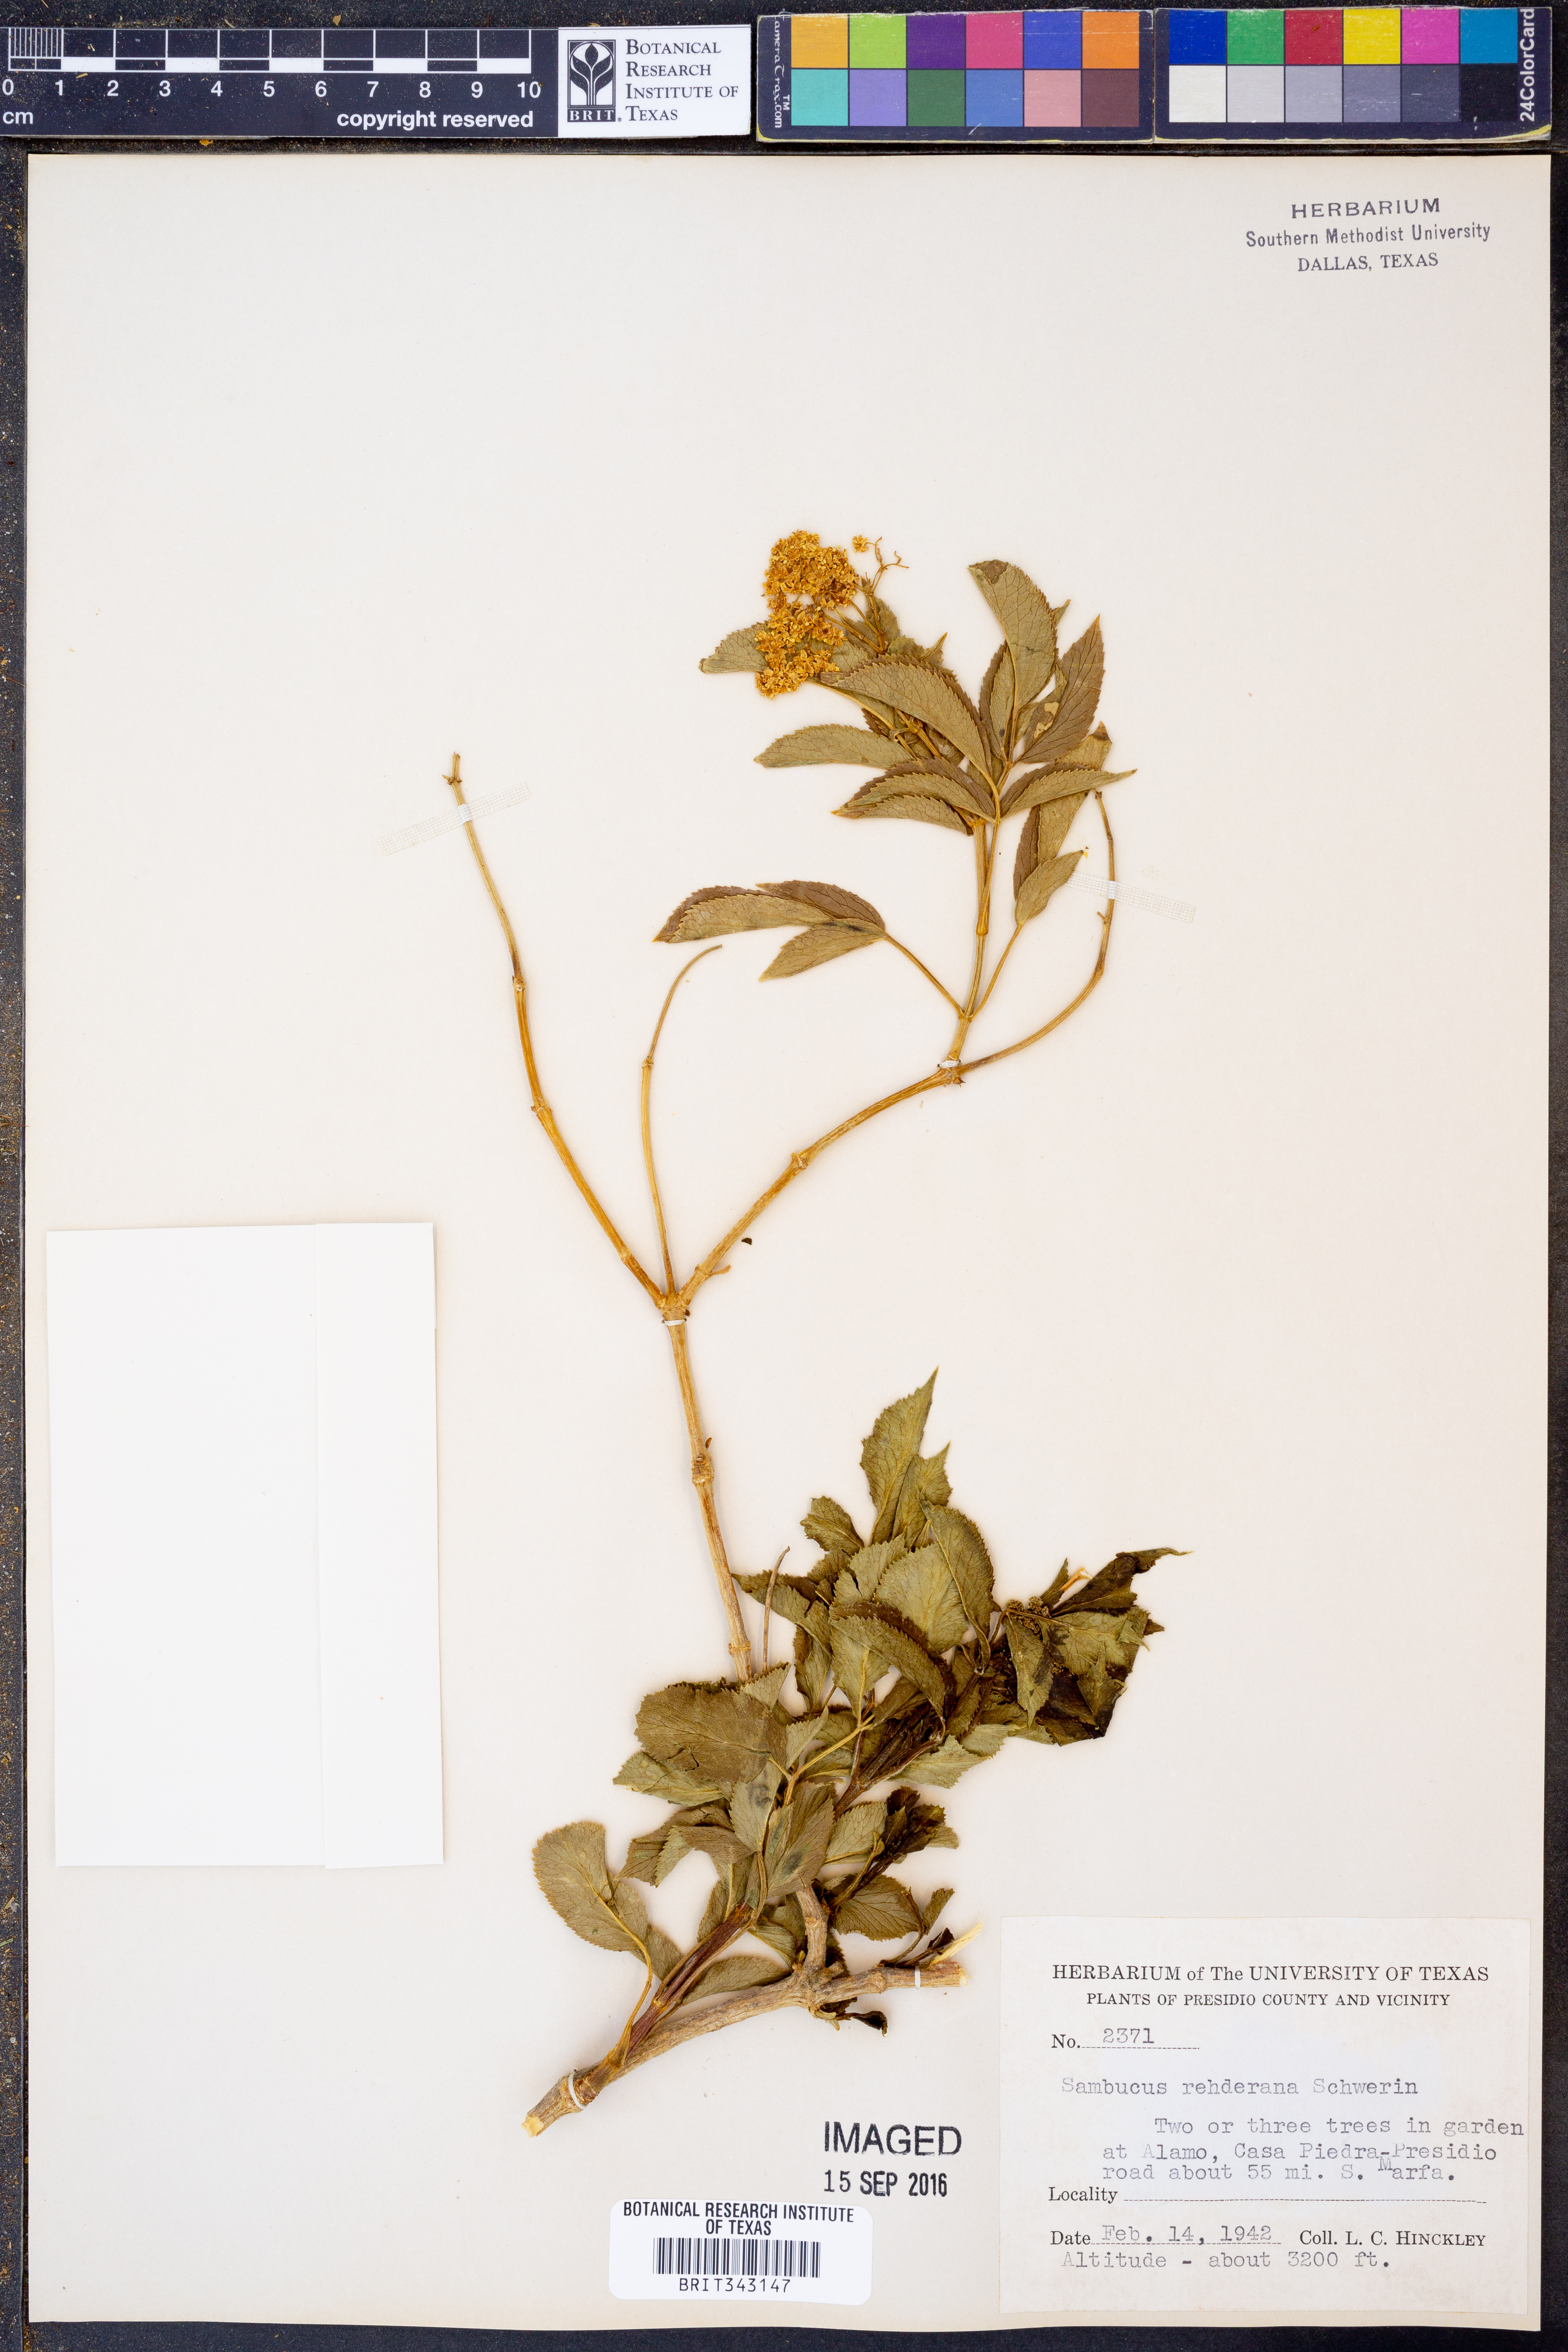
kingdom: Plantae
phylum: Tracheophyta
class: Magnoliopsida
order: Dipsacales
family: Viburnaceae
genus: Sambucus
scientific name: Sambucus canadensis
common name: American elder
